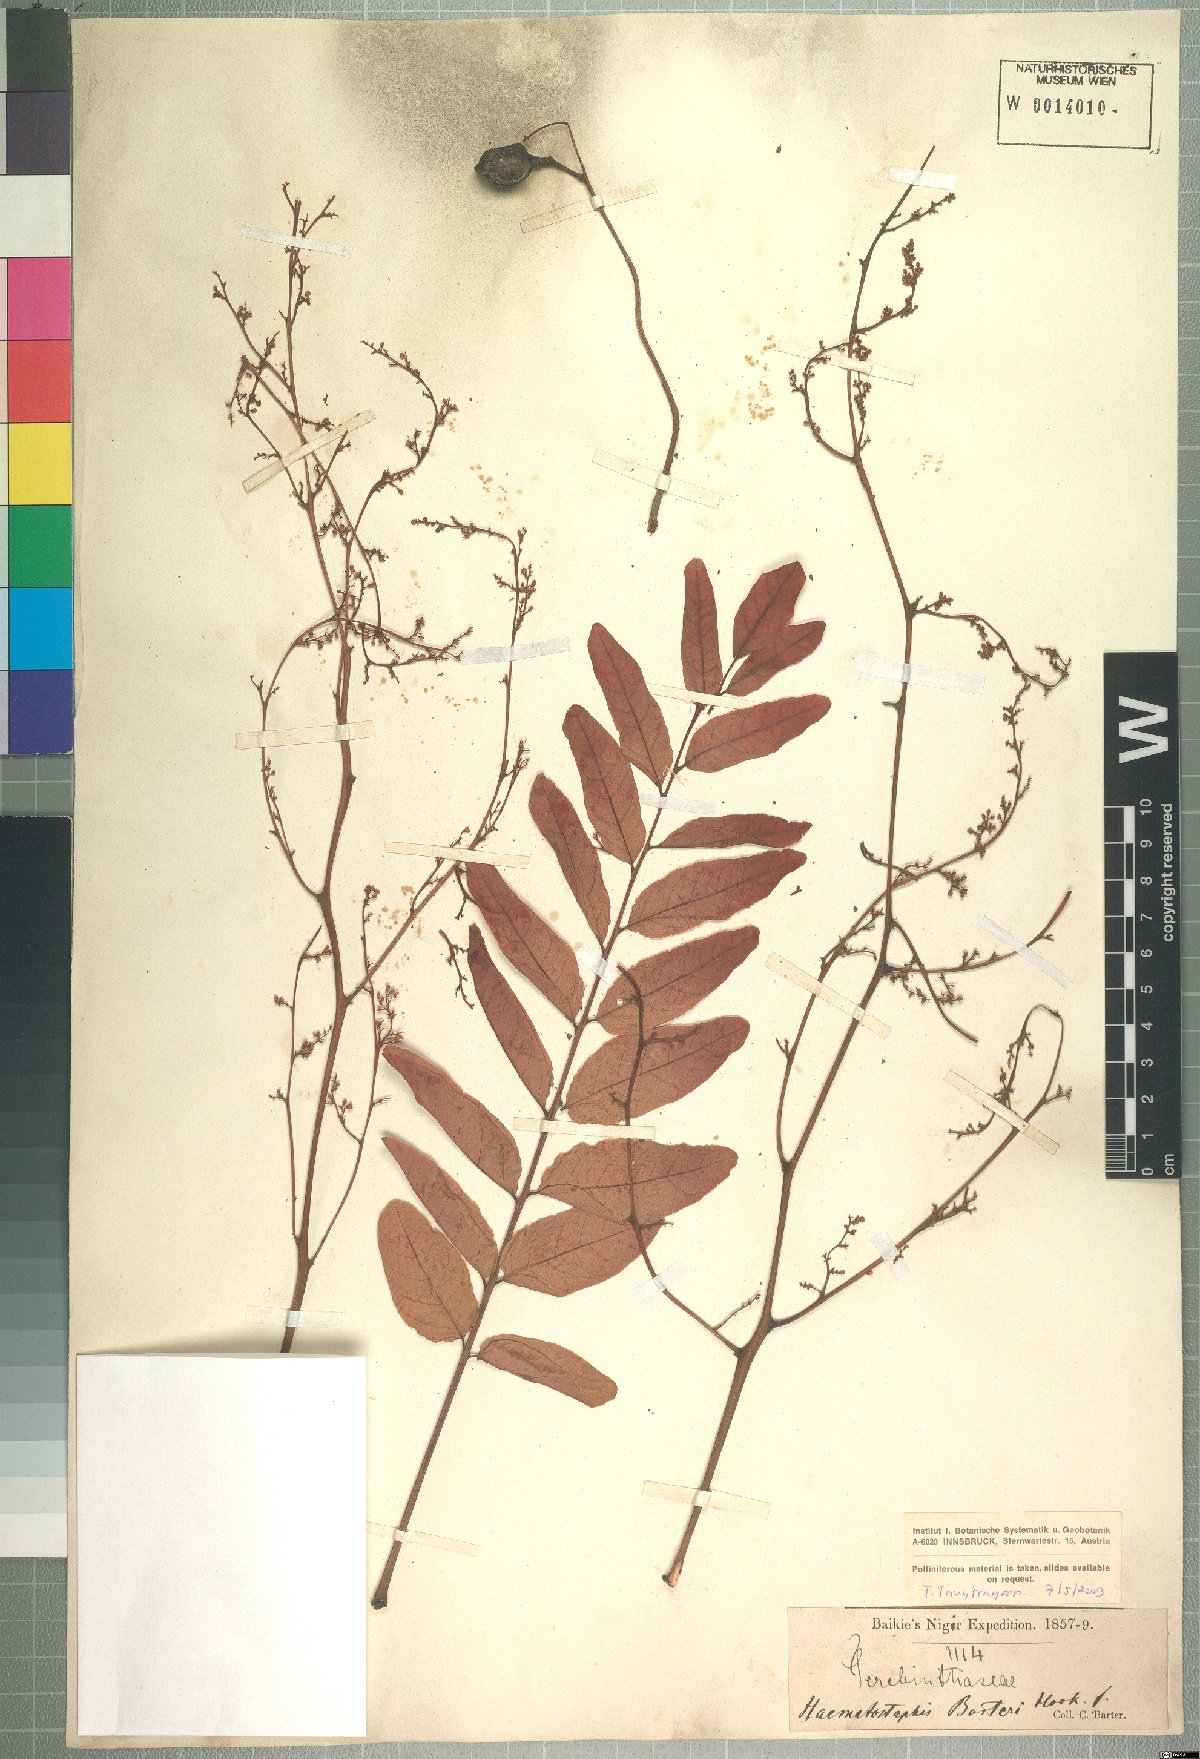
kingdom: Plantae
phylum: Tracheophyta
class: Magnoliopsida
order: Sapindales
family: Anacardiaceae
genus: Haematostaphis
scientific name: Haematostaphis barteri
